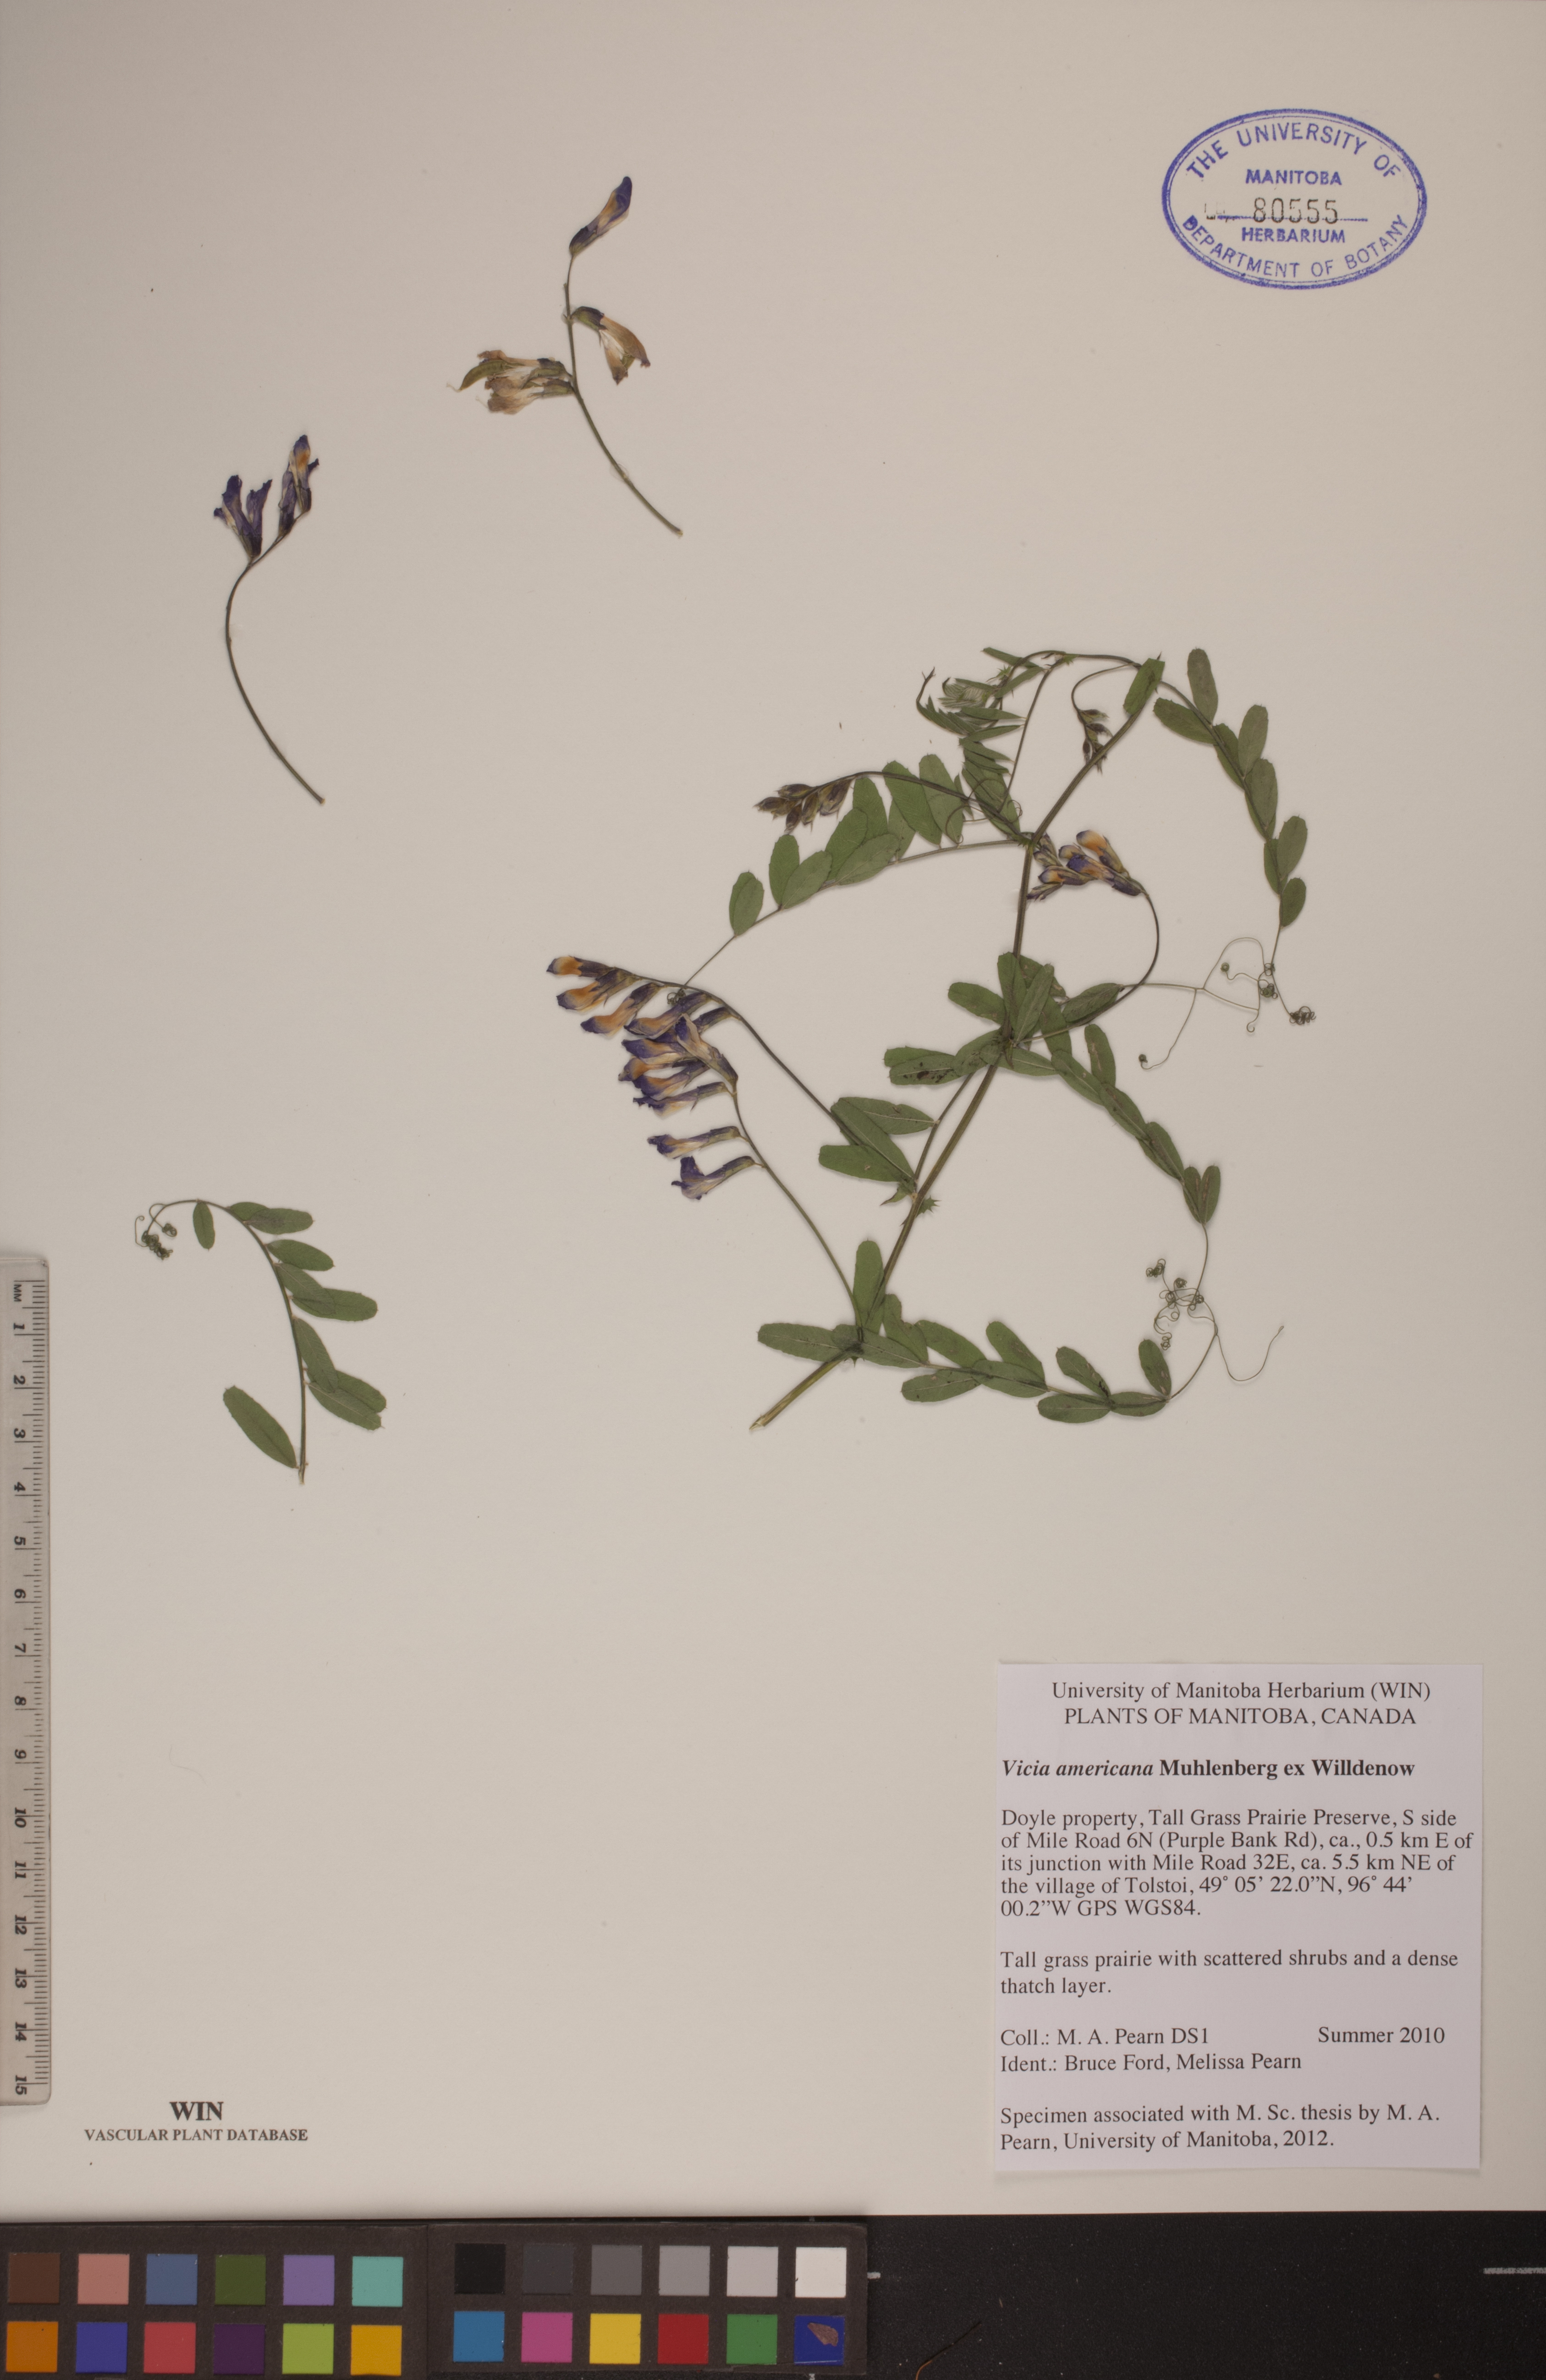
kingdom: Plantae
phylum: Tracheophyta
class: Magnoliopsida
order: Fabales
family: Fabaceae
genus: Vicia
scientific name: Vicia americana
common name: American vetch
